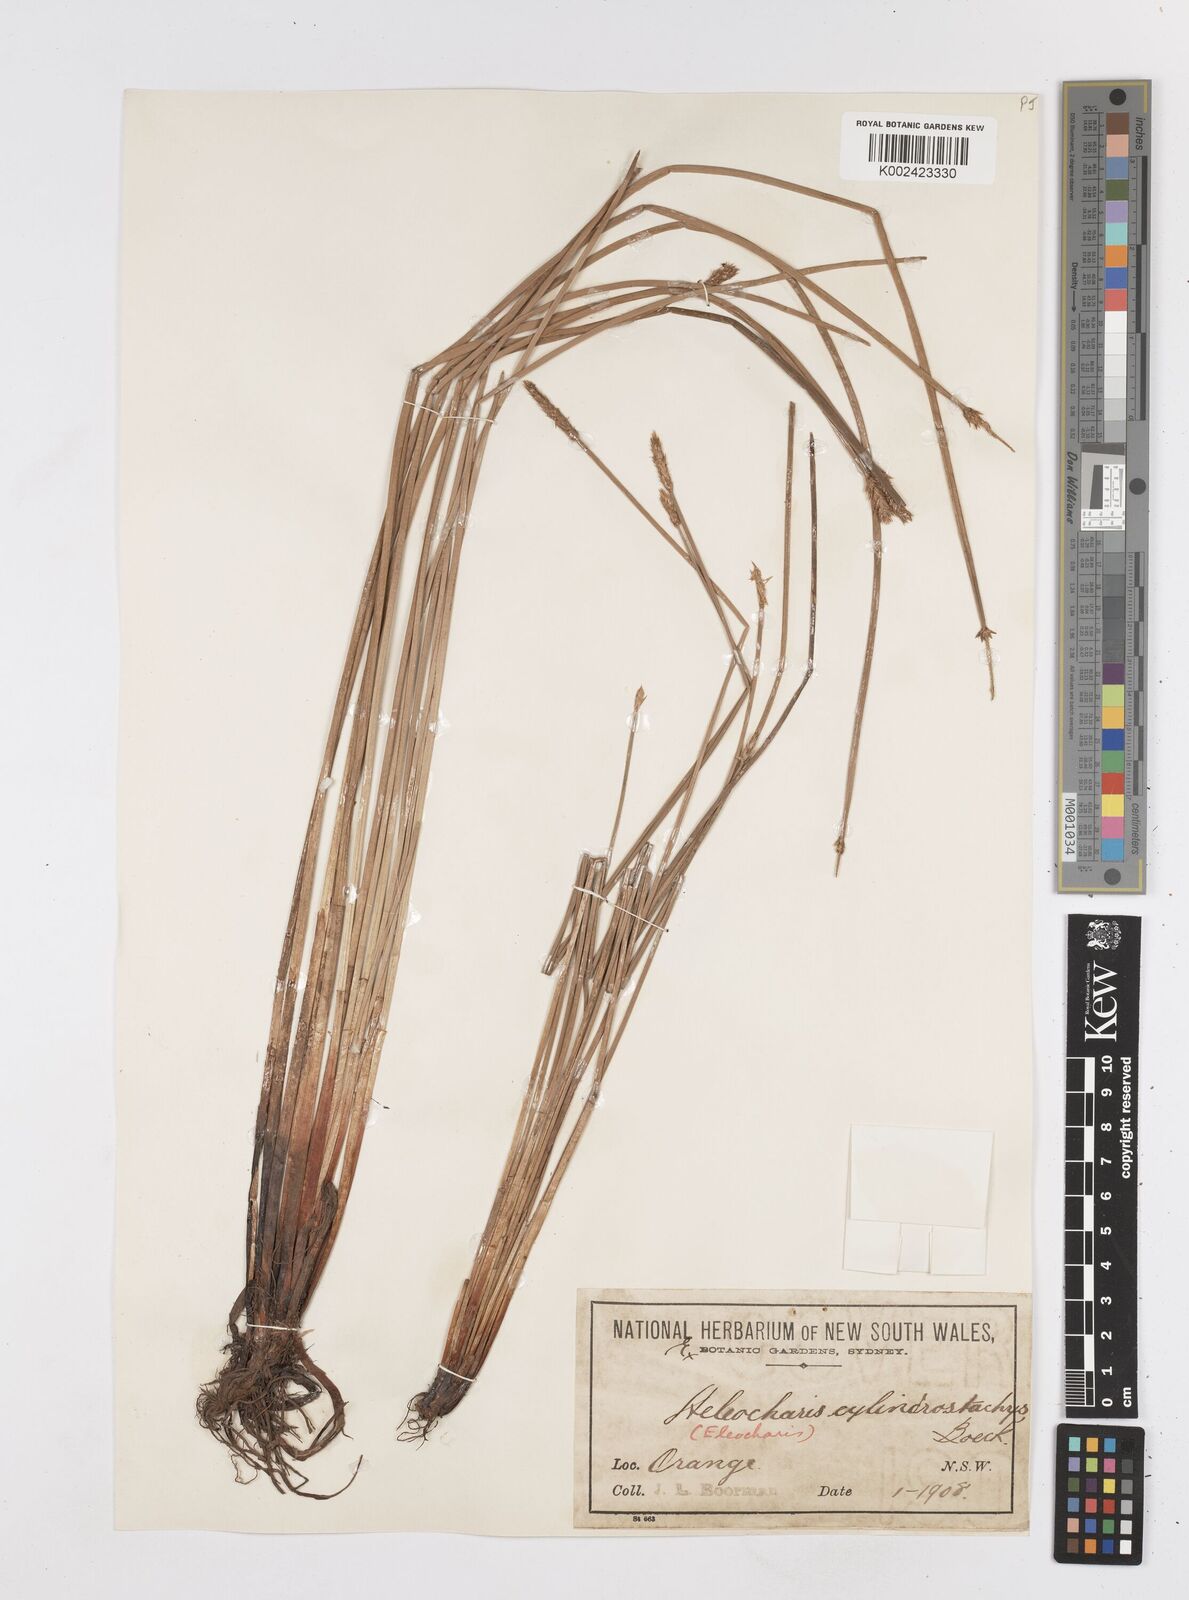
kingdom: Plantae
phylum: Tracheophyta
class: Liliopsida
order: Poales
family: Cyperaceae
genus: Eleocharis
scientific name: Eleocharis cylindrostachys
